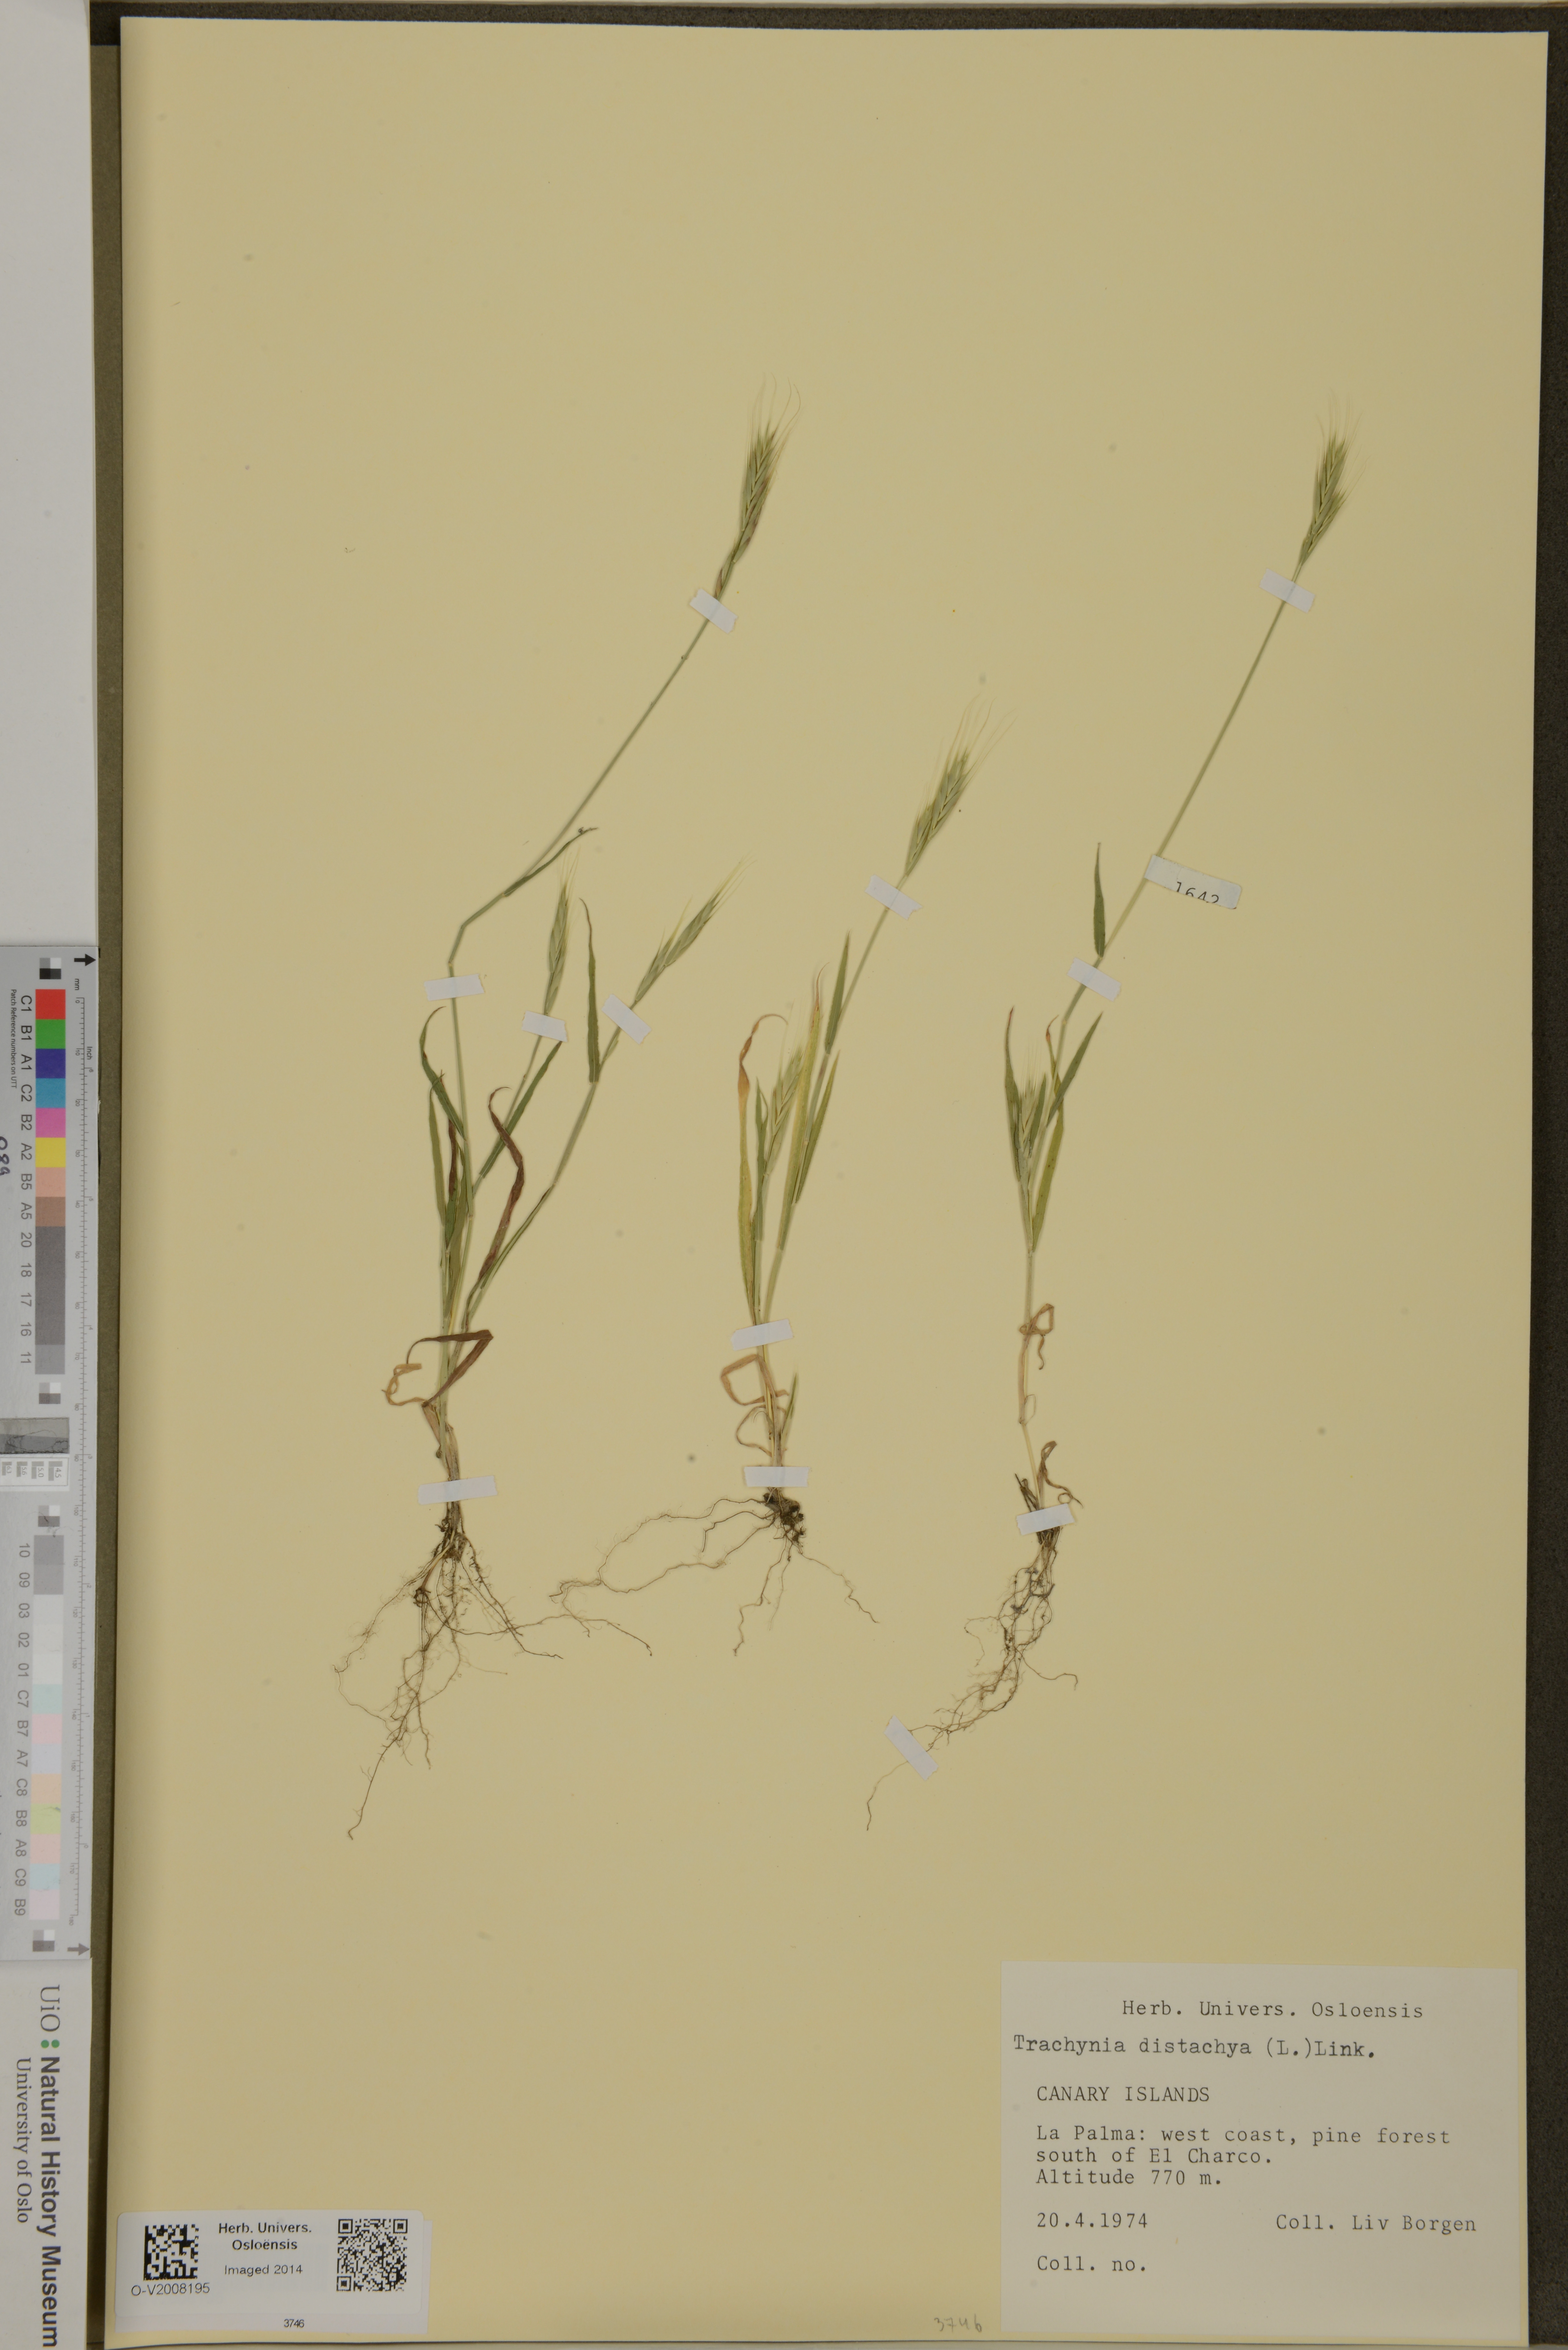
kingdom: Plantae
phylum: Tracheophyta
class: Liliopsida
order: Poales
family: Poaceae
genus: Brachypodium
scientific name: Brachypodium distachyon
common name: Stiff brome
